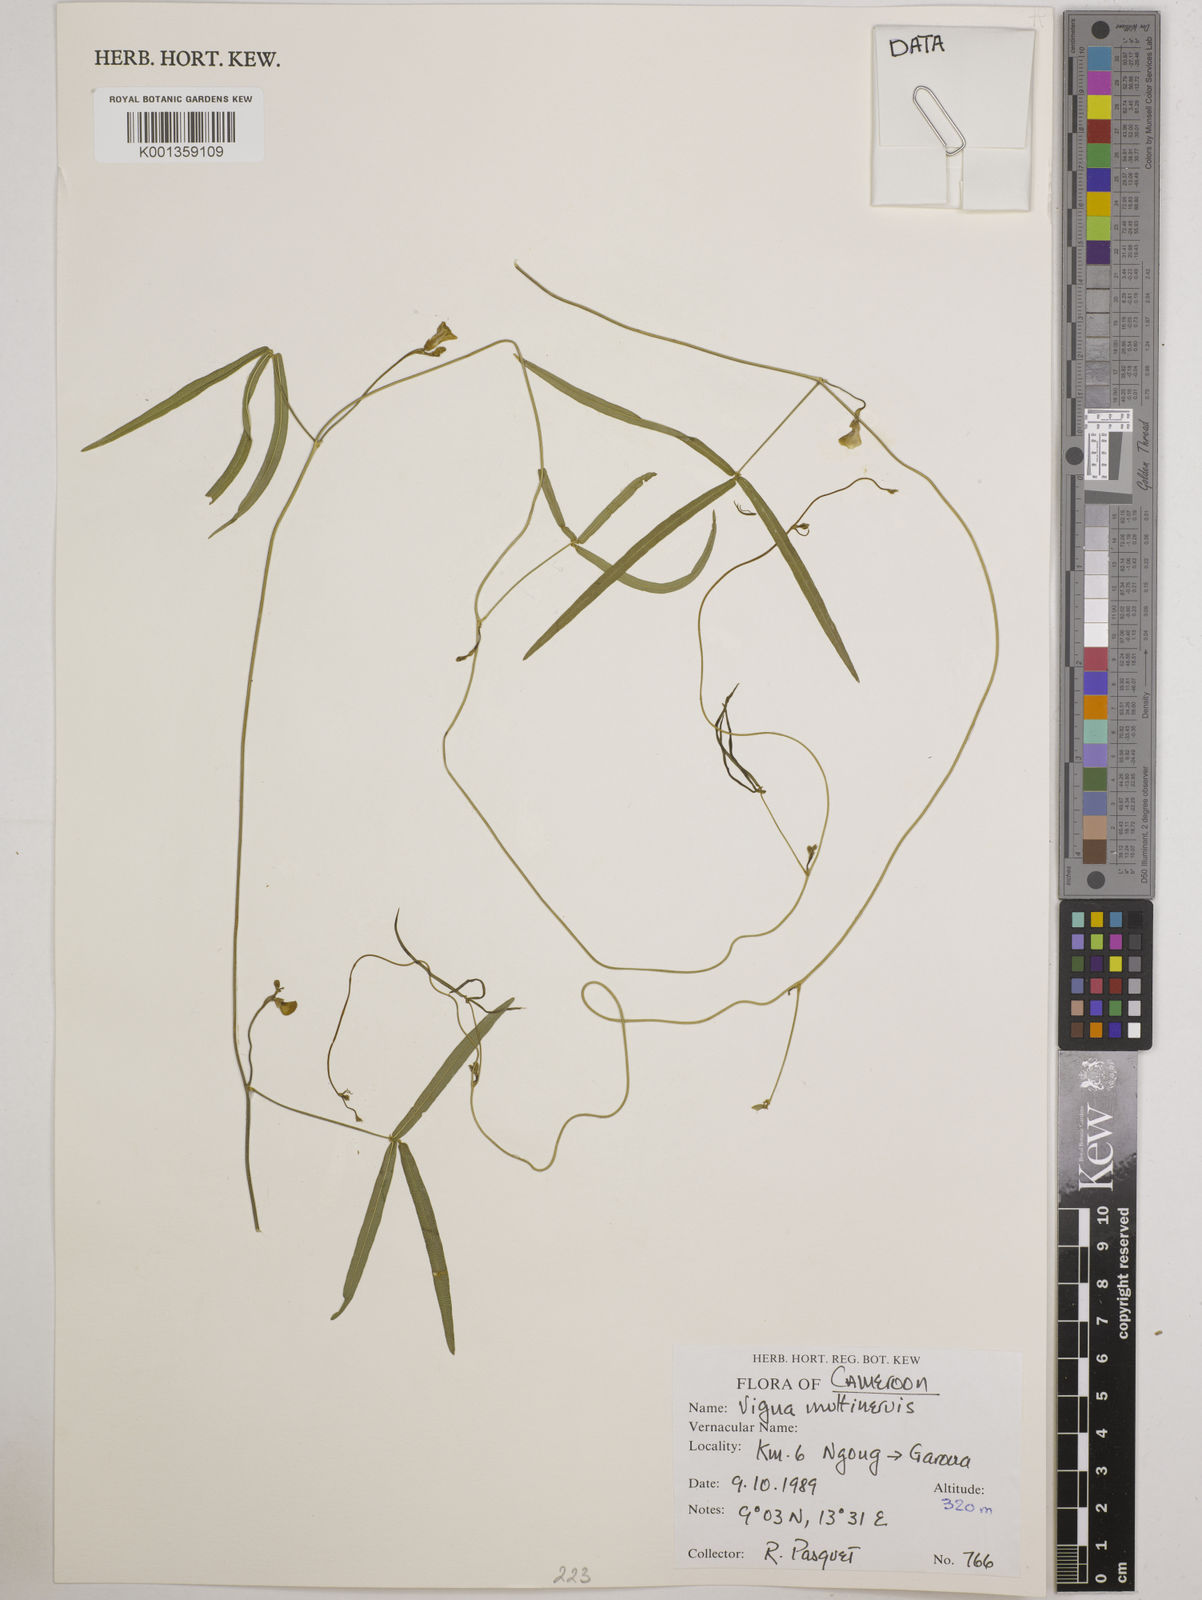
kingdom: Plantae
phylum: Tracheophyta
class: Magnoliopsida
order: Fabales
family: Fabaceae
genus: Vigna
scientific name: Vigna multinervis
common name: Fula-pulaar
